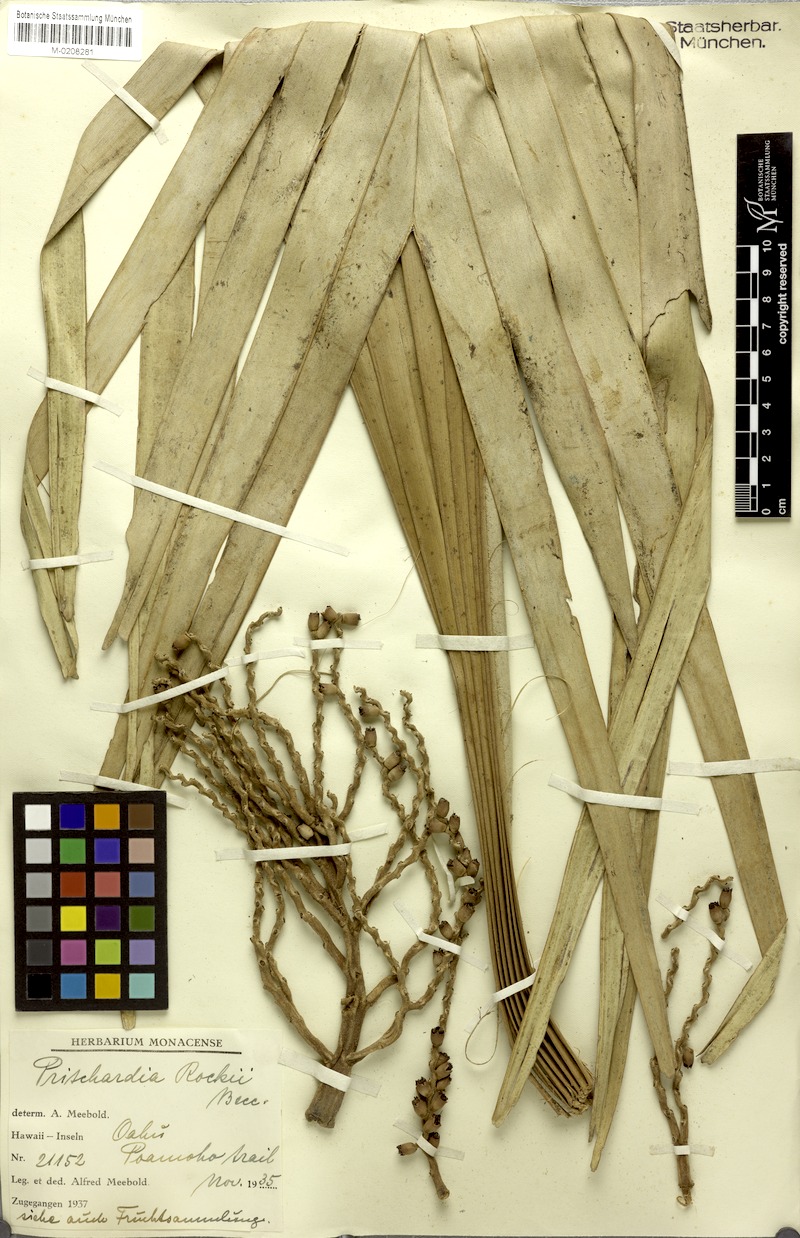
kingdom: Plantae
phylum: Tracheophyta
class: Liliopsida
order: Arecales
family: Arecaceae
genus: Pritchardia
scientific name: Pritchardia martii
